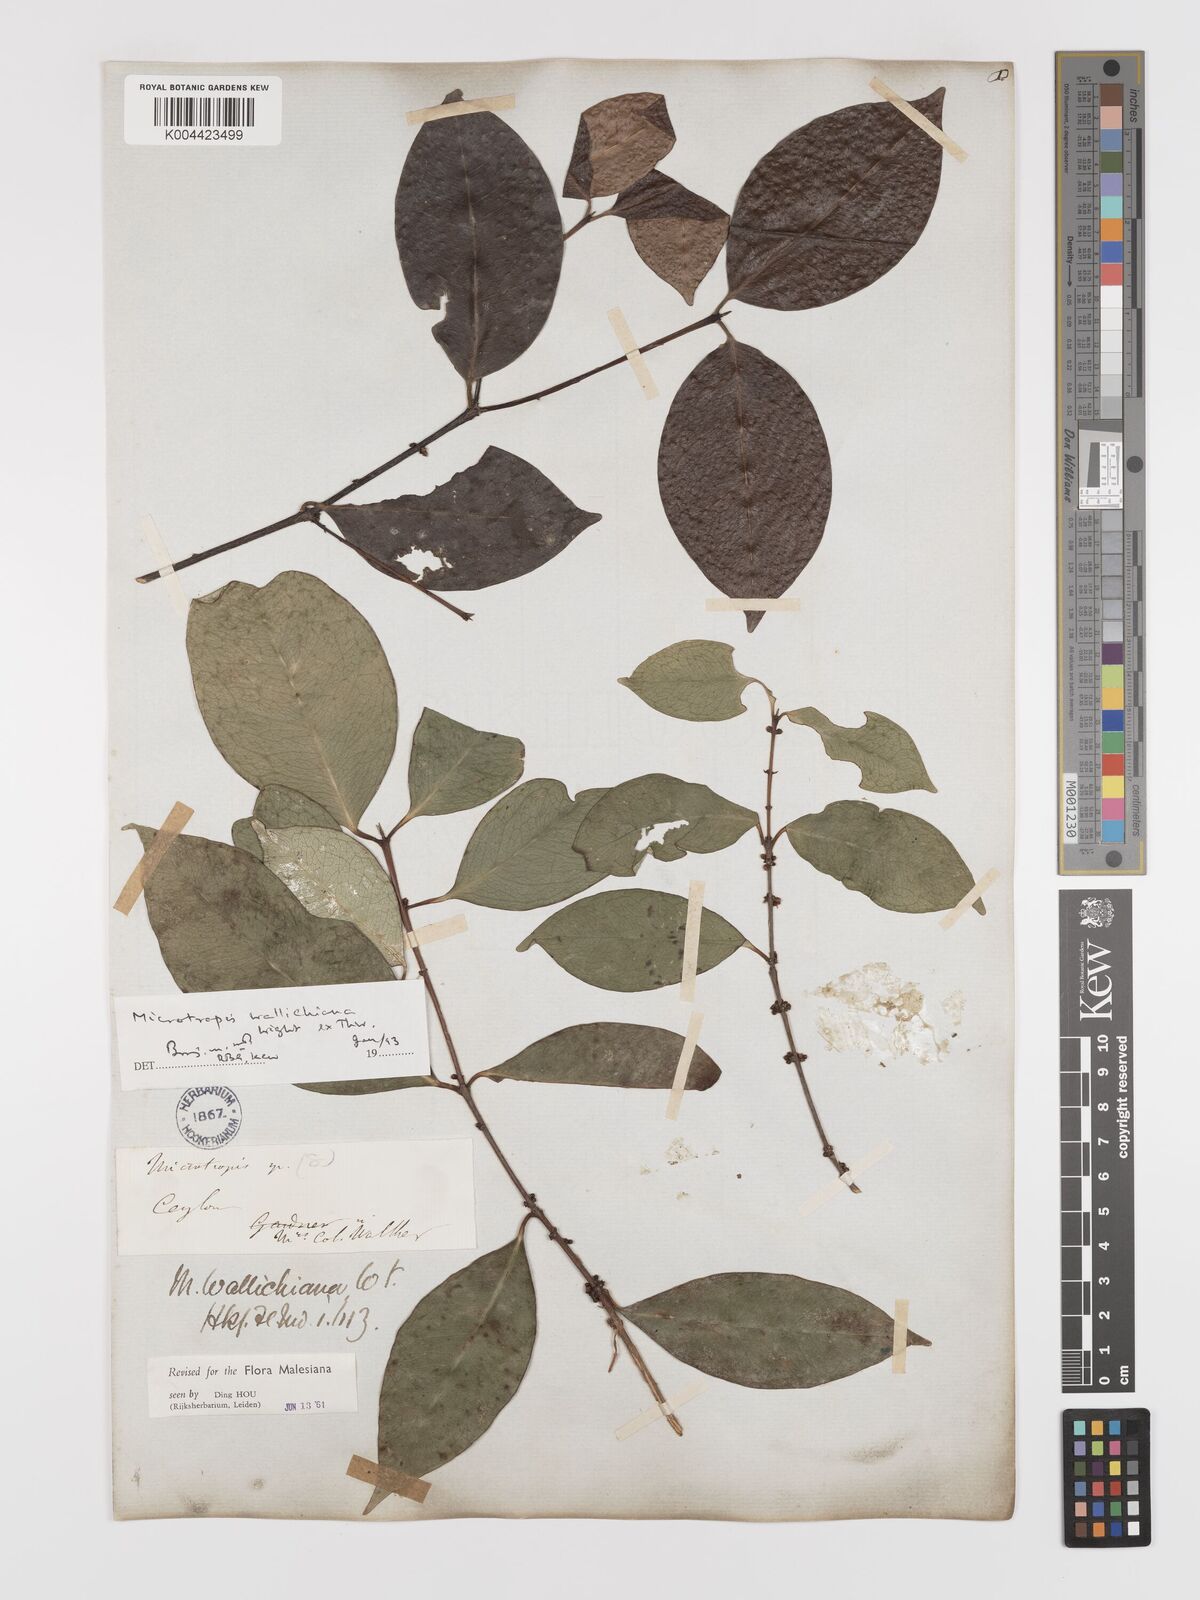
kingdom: Plantae
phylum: Tracheophyta
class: Magnoliopsida
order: Celastrales
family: Celastraceae
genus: Microtropis
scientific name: Microtropis wallichiana
